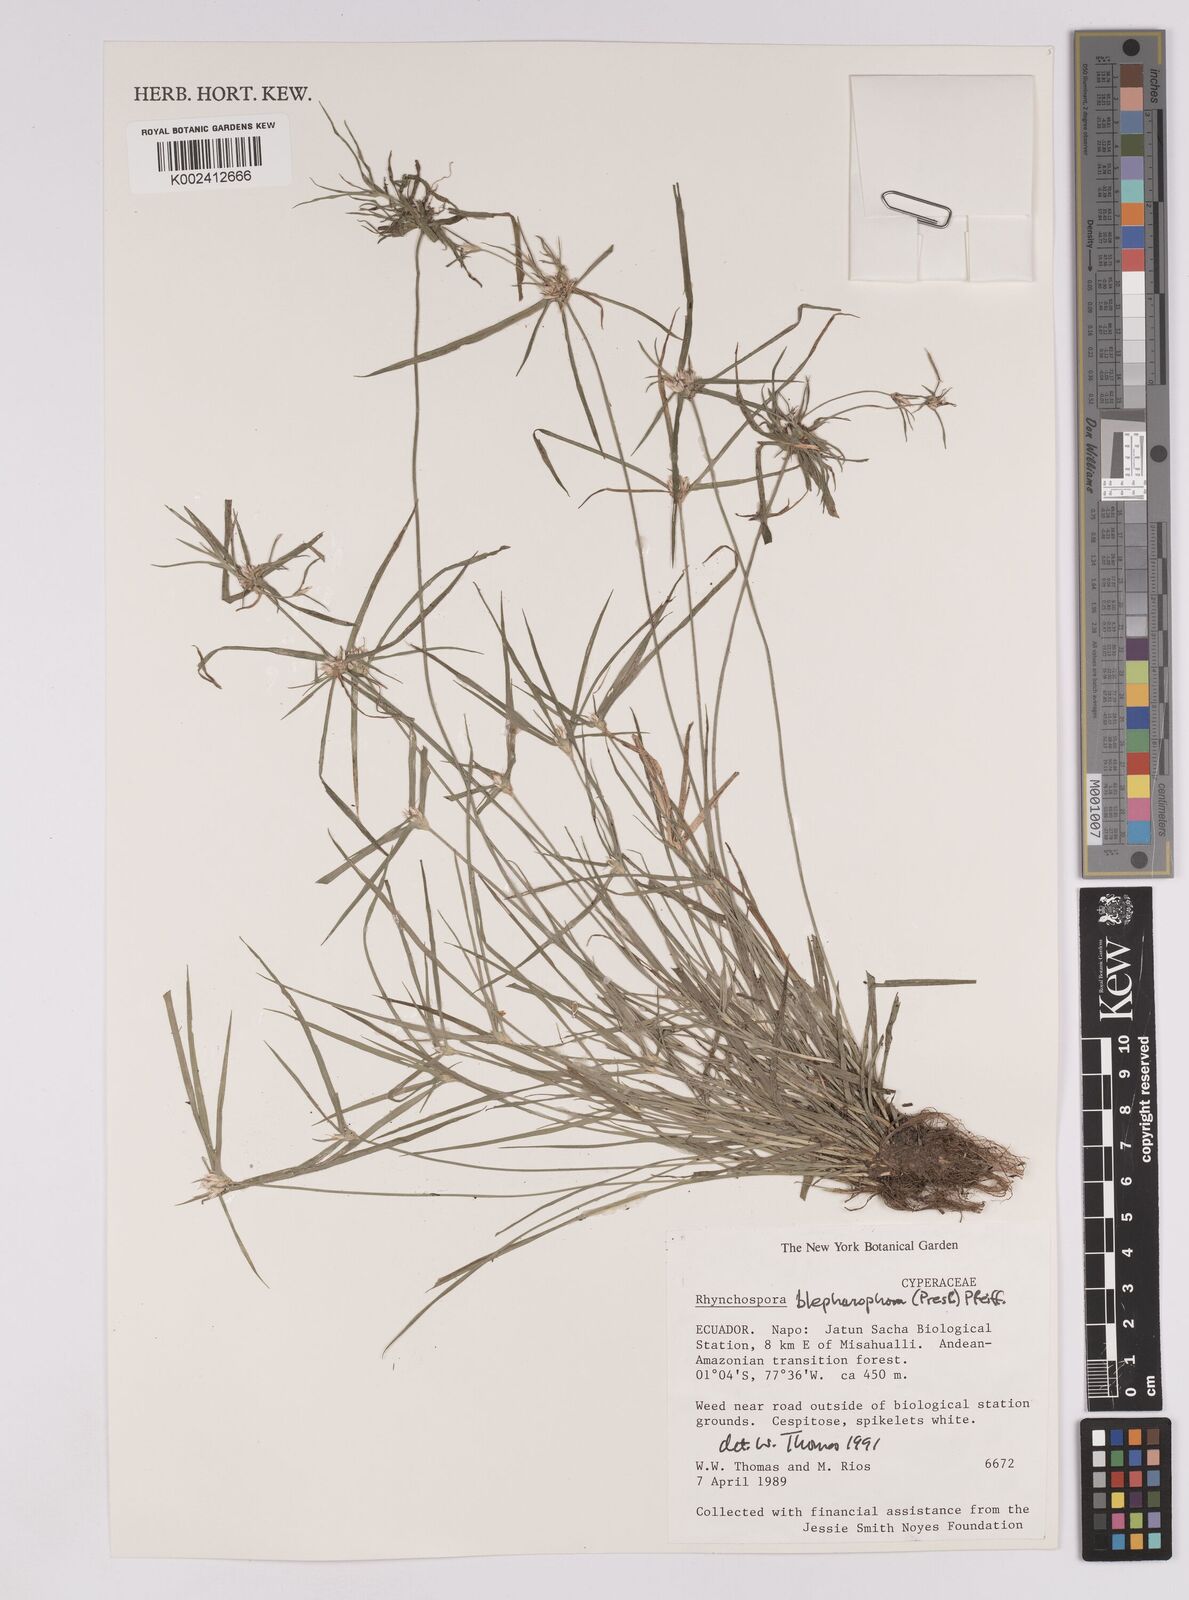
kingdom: Plantae
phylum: Tracheophyta
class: Liliopsida
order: Poales
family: Cyperaceae
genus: Rhynchospora
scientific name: Rhynchospora blepharophora
